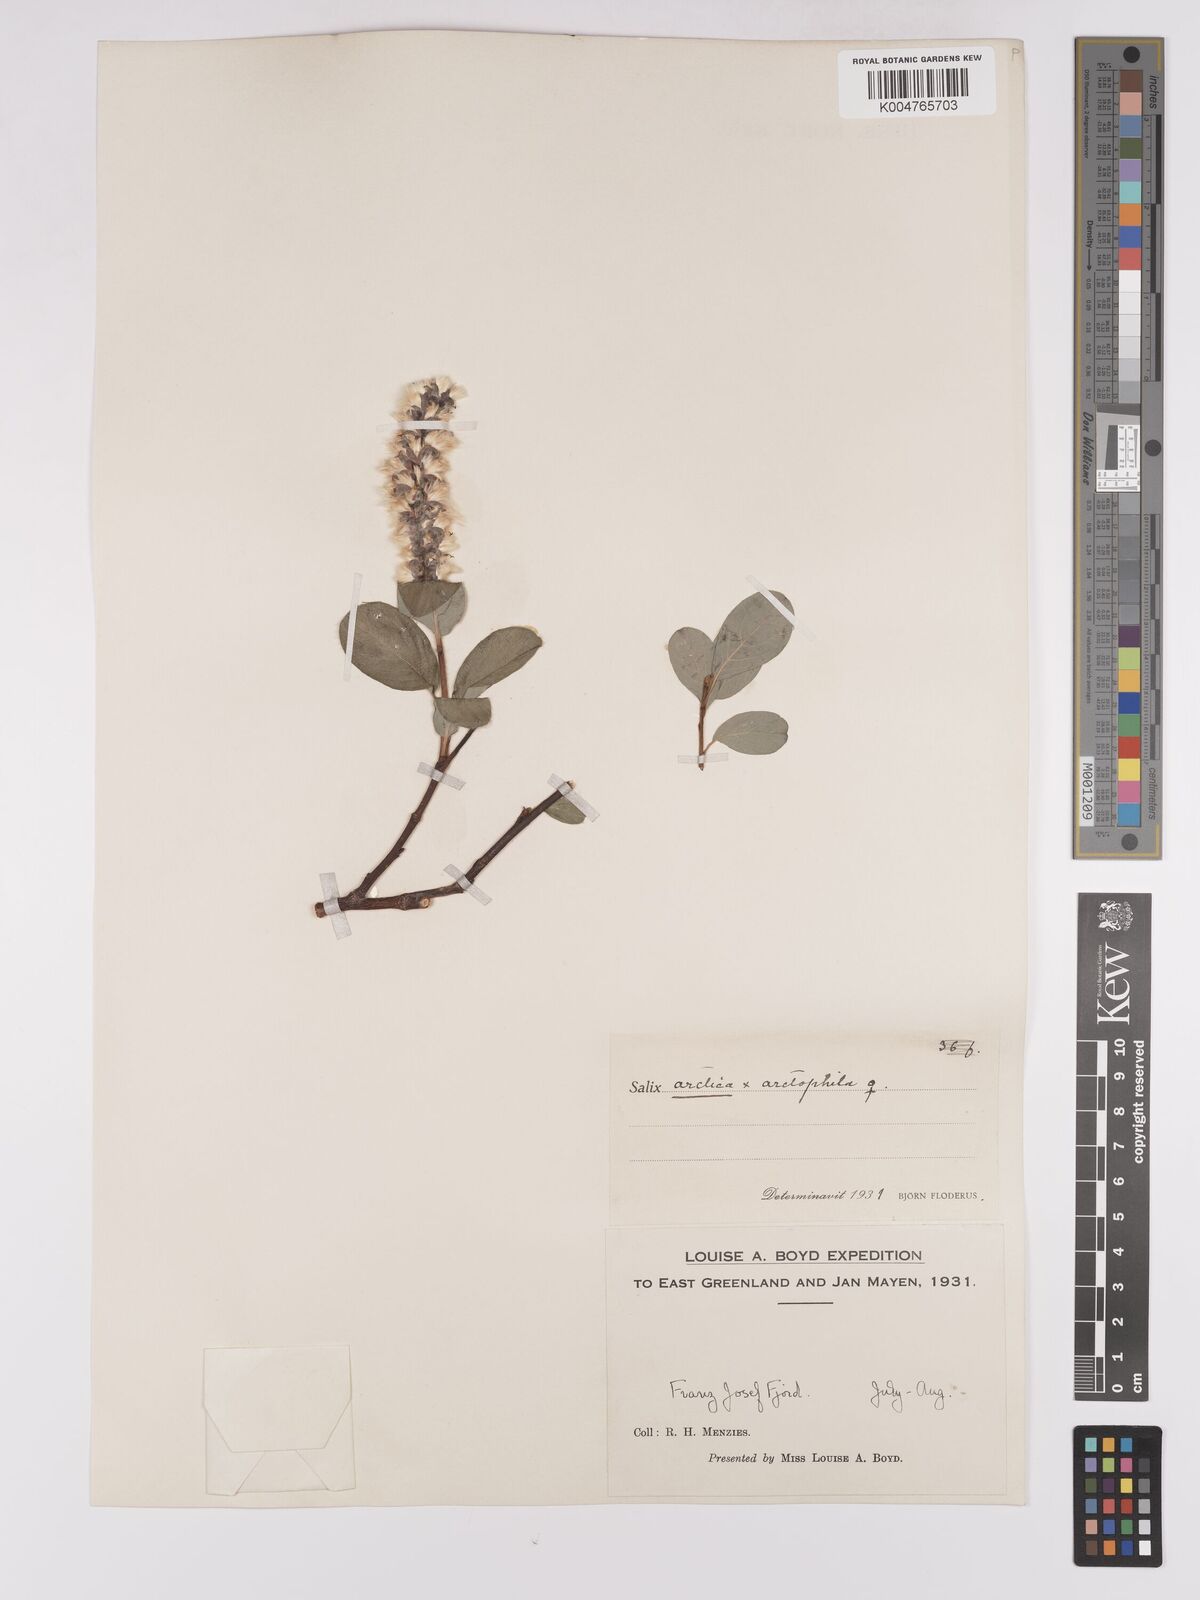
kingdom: Plantae
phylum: Tracheophyta
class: Magnoliopsida
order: Malpighiales
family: Salicaceae
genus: Salix
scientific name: Salix
